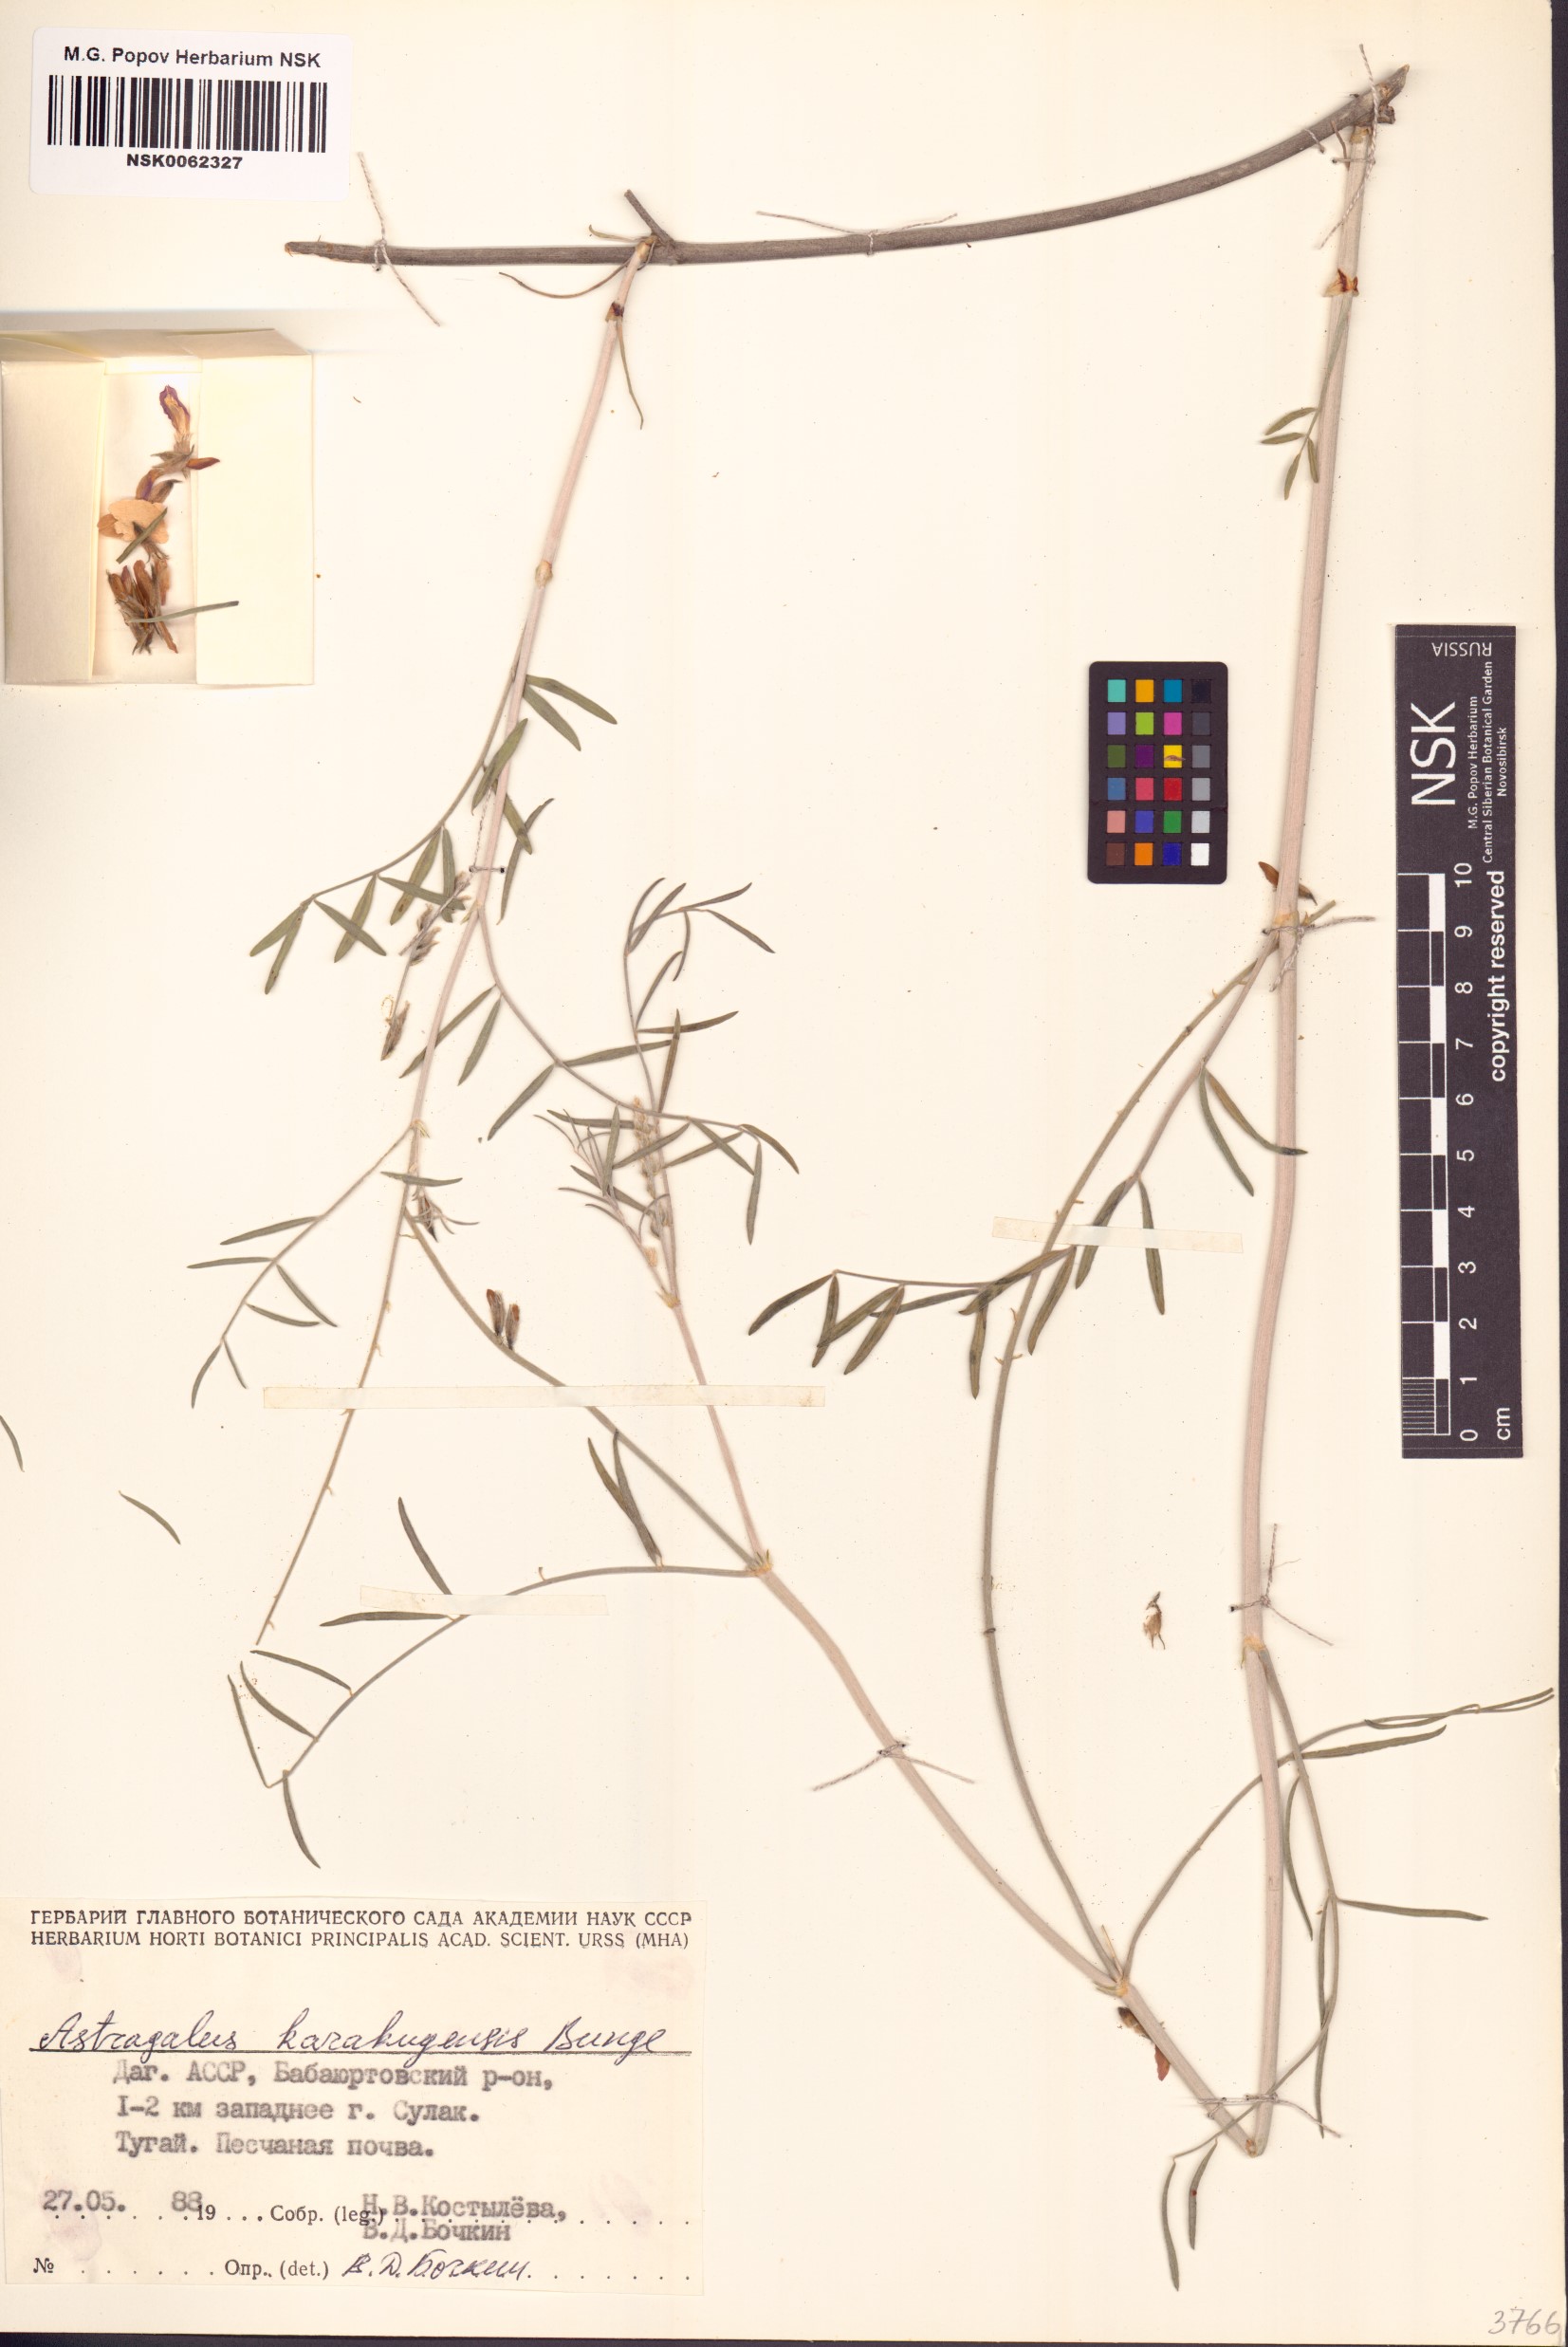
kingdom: Plantae
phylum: Tracheophyta
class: Magnoliopsida
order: Fabales
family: Fabaceae
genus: Astragalus
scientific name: Astragalus karakugensis
